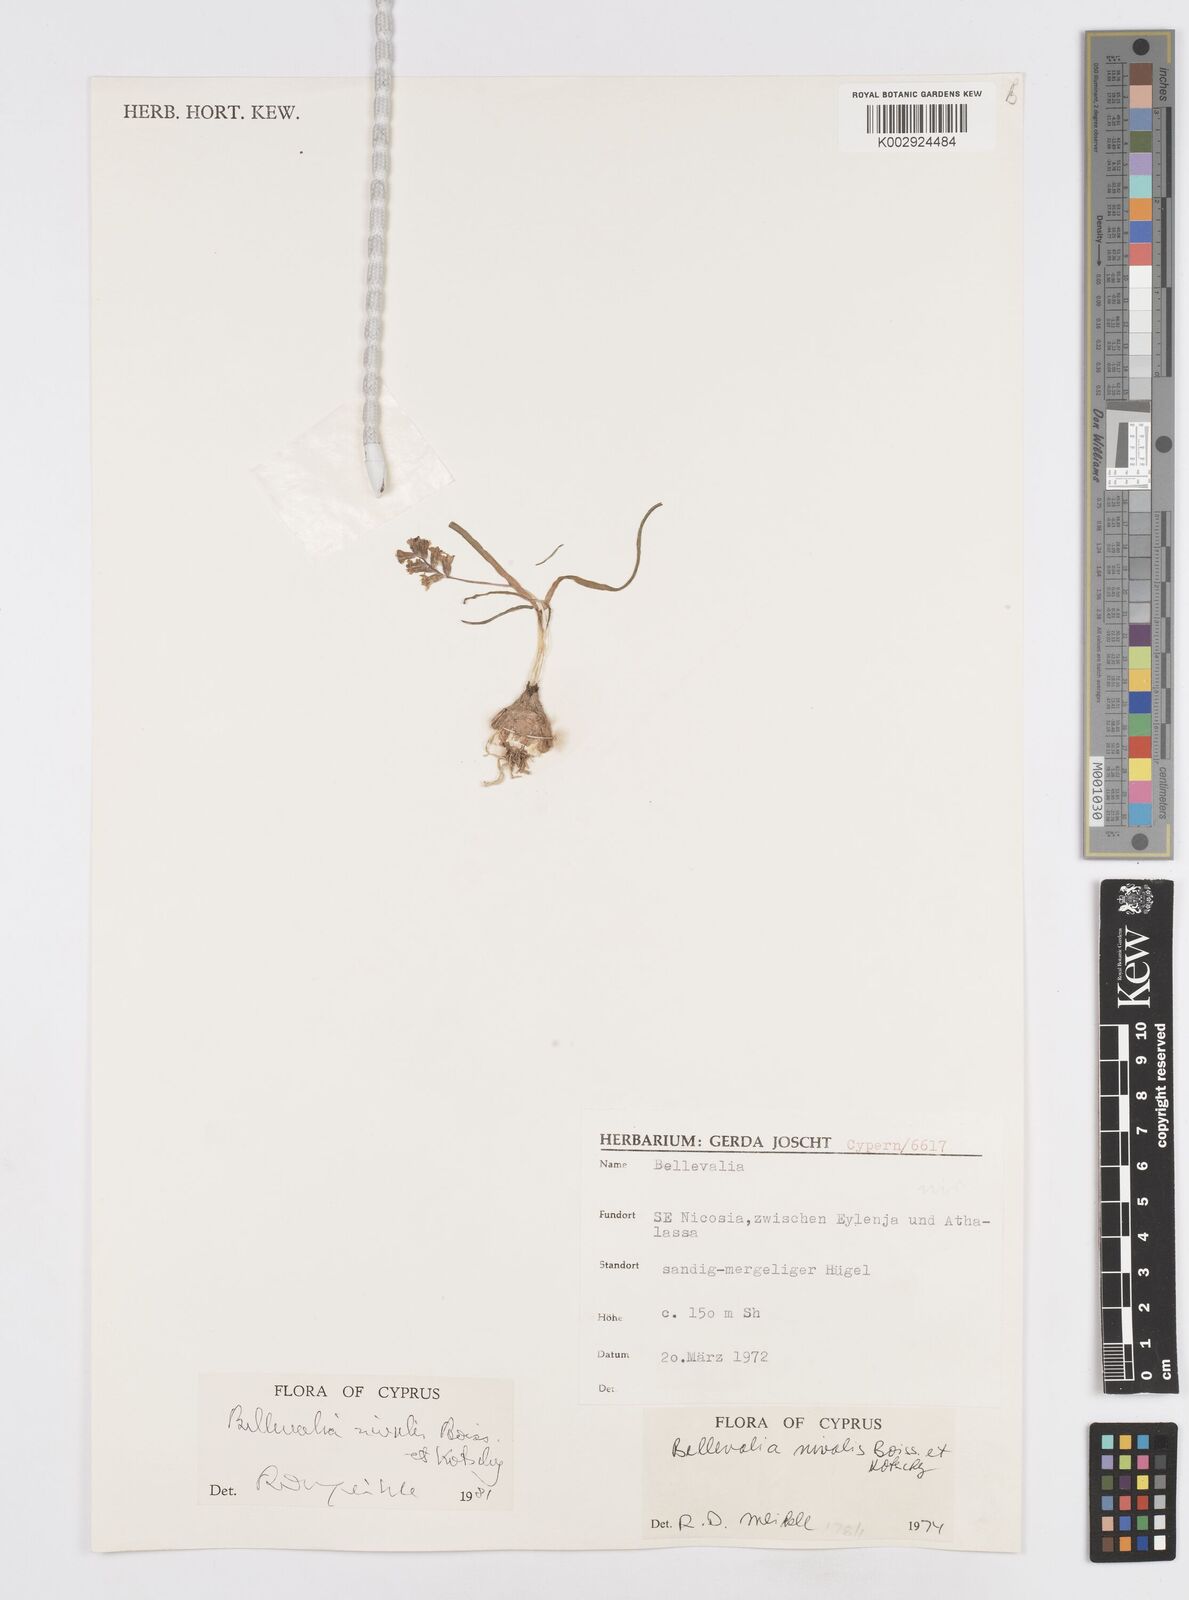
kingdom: Plantae
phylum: Tracheophyta
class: Liliopsida
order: Asparagales
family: Asparagaceae
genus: Bellevalia
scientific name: Bellevalia nivalis
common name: Snow bellevalia
